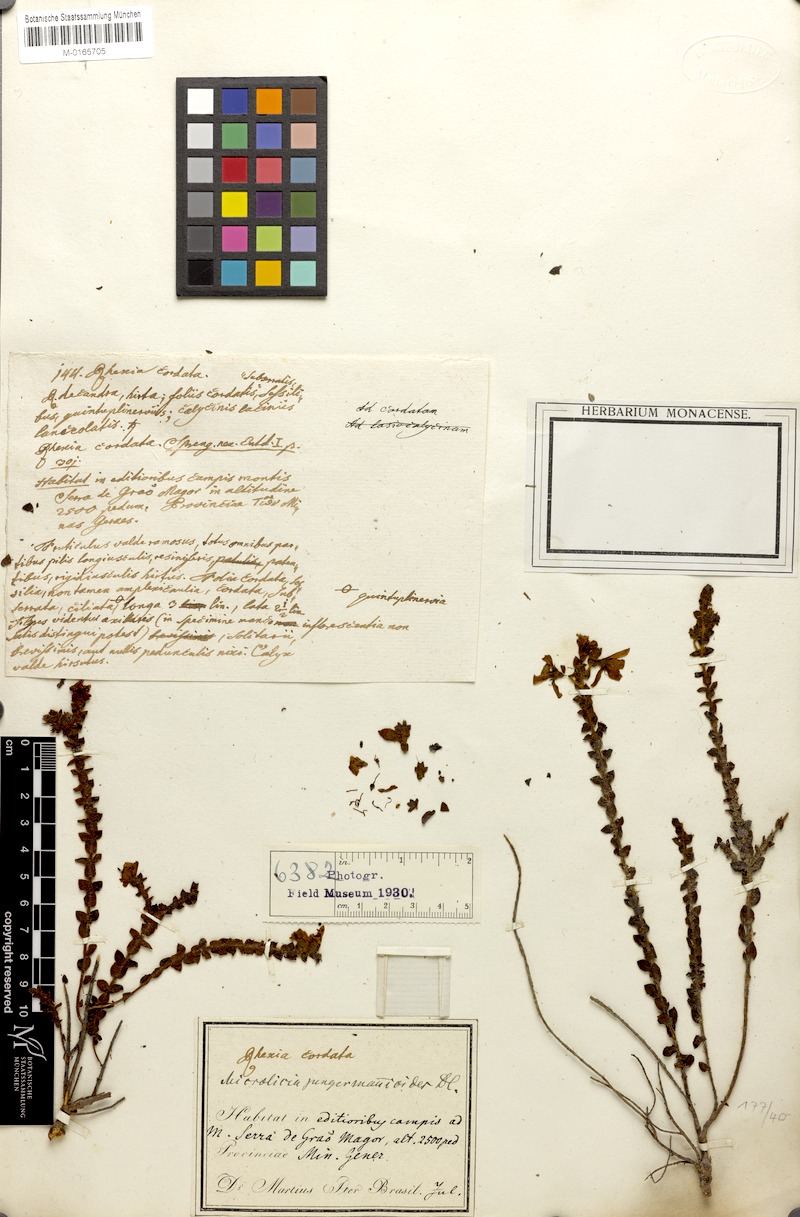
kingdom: Plantae
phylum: Tracheophyta
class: Magnoliopsida
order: Myrtales
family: Melastomataceae
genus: Microlicia
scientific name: Microlicia jungermannioides
